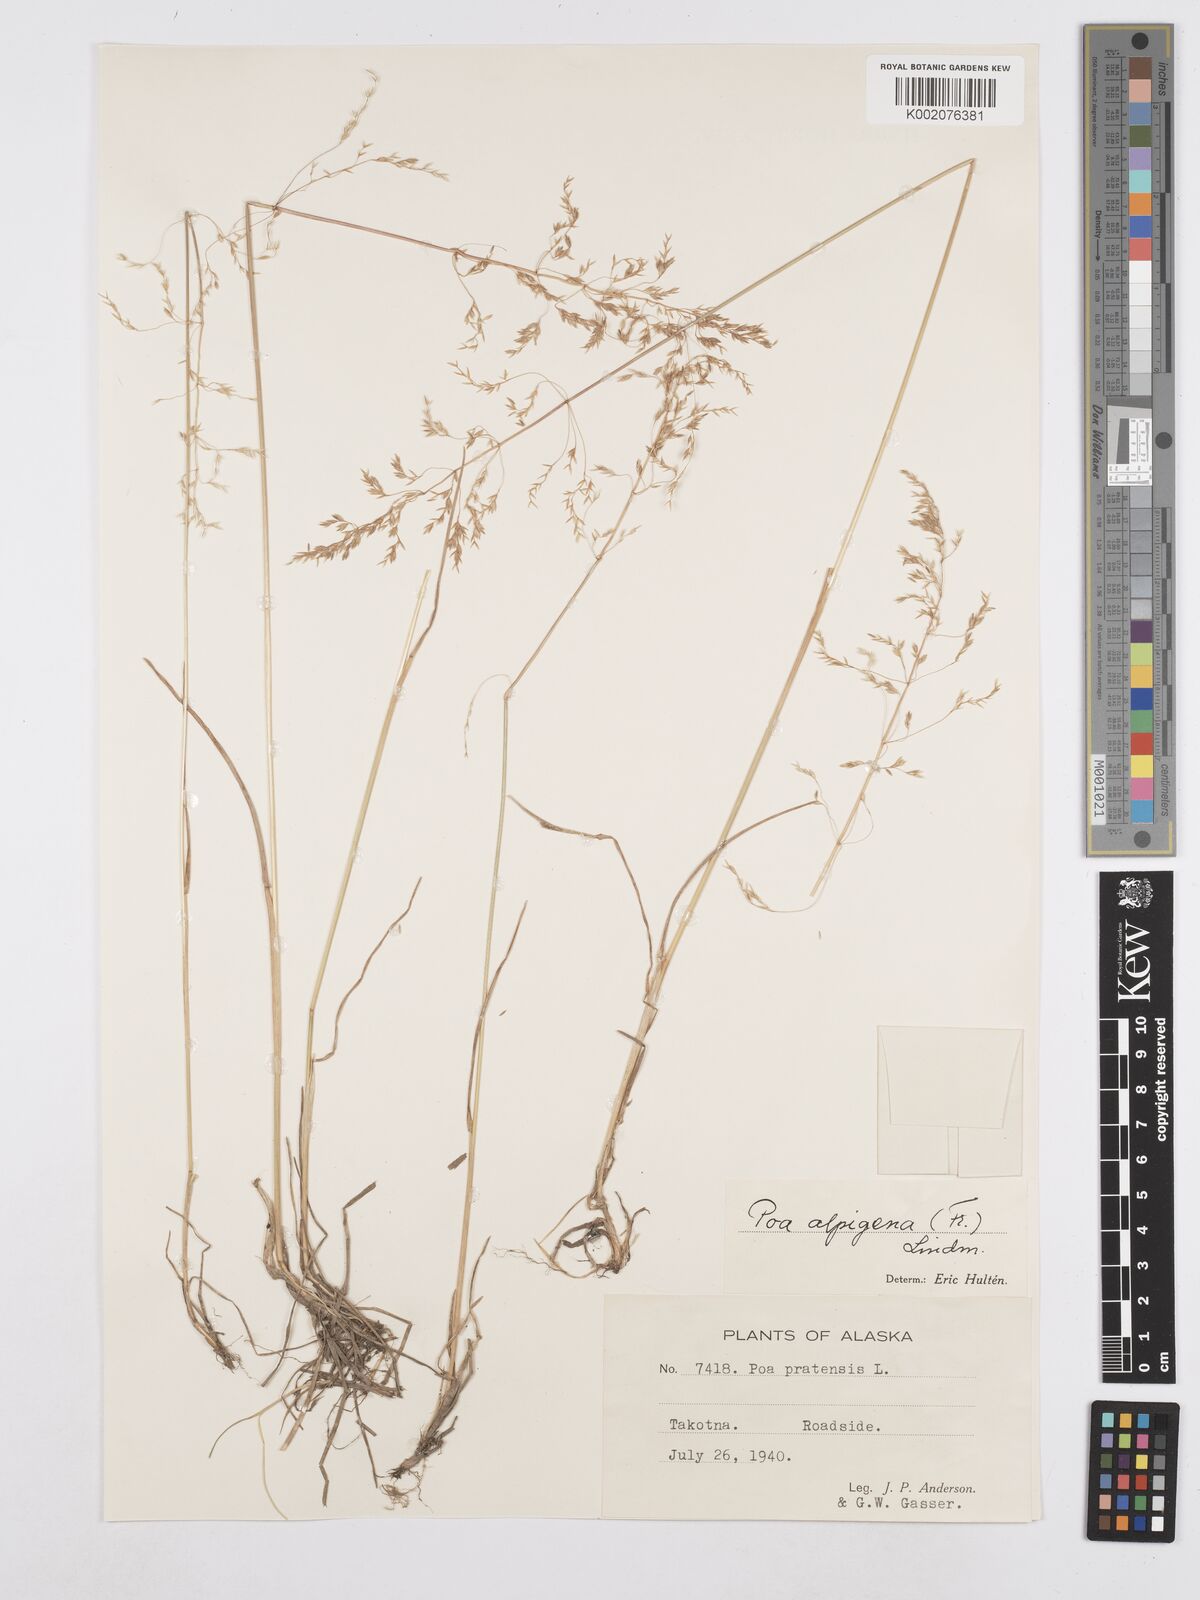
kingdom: Plantae
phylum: Tracheophyta
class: Liliopsida
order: Poales
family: Poaceae
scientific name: Poaceae
